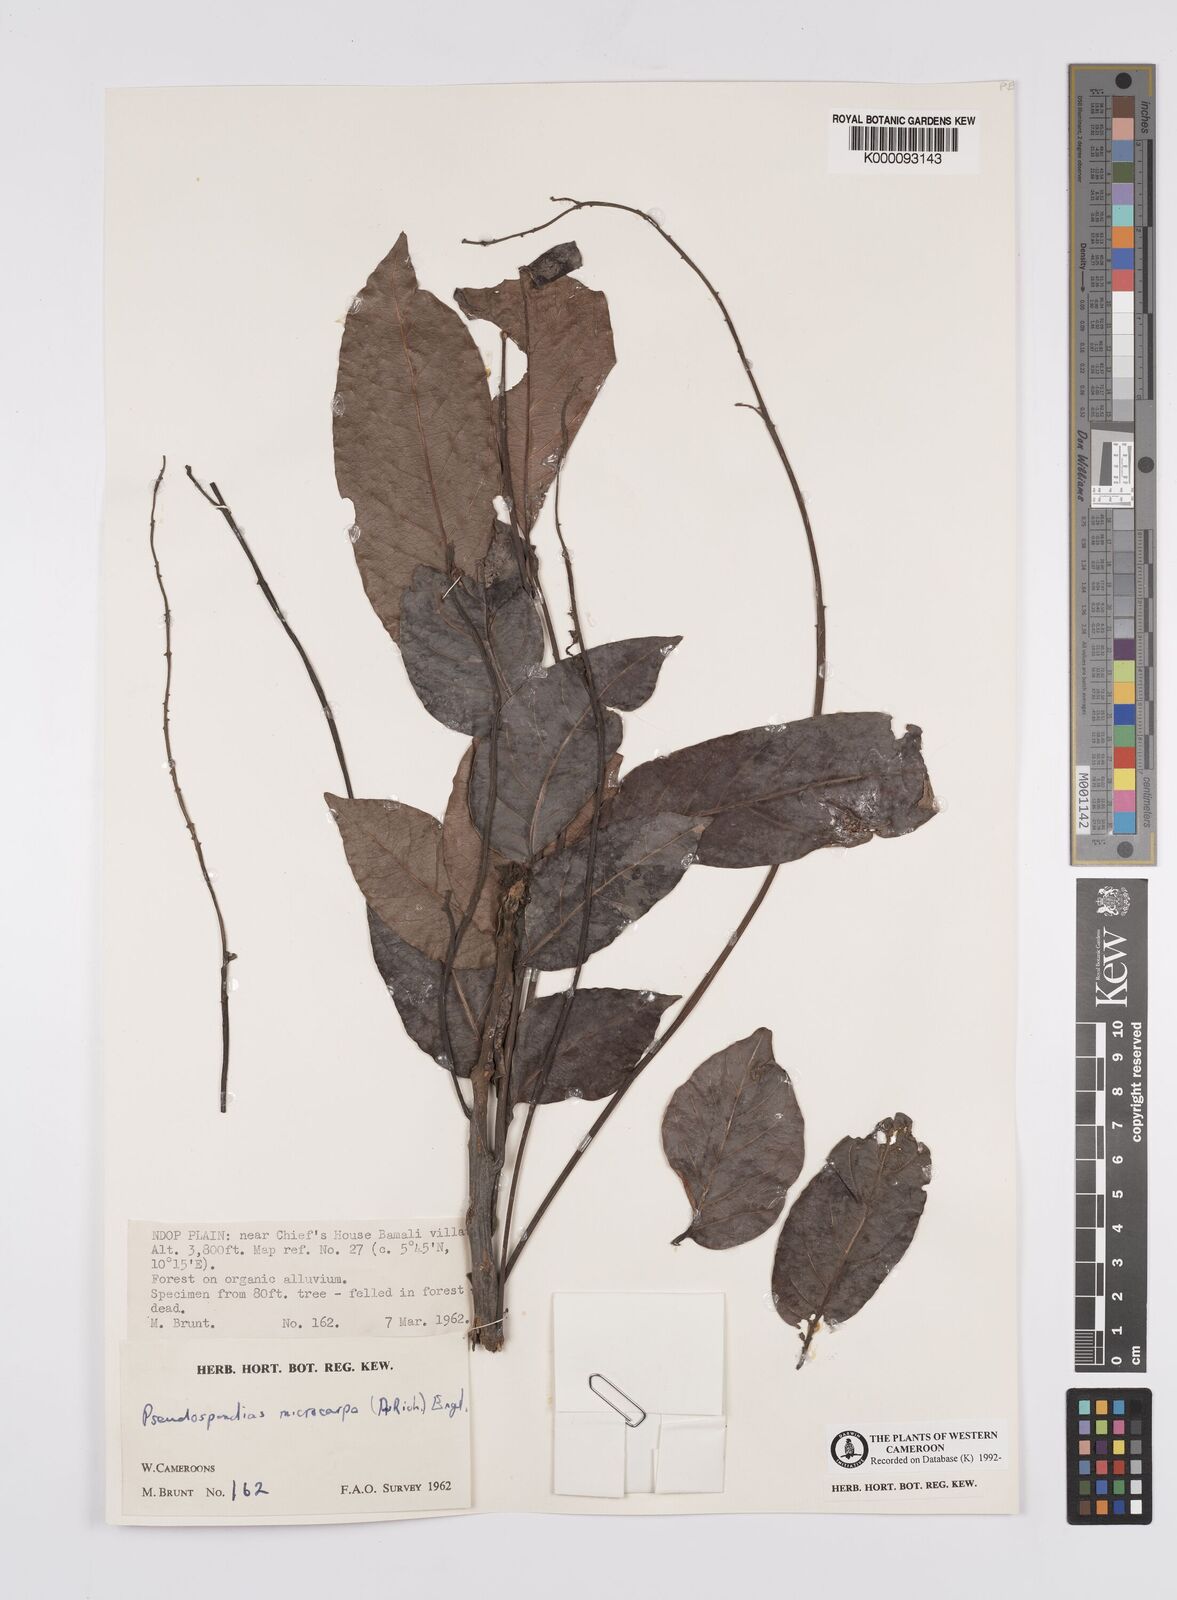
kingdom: Plantae
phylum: Tracheophyta
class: Magnoliopsida
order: Sapindales
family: Anacardiaceae
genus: Pseudospondias
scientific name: Pseudospondias microcarpa
